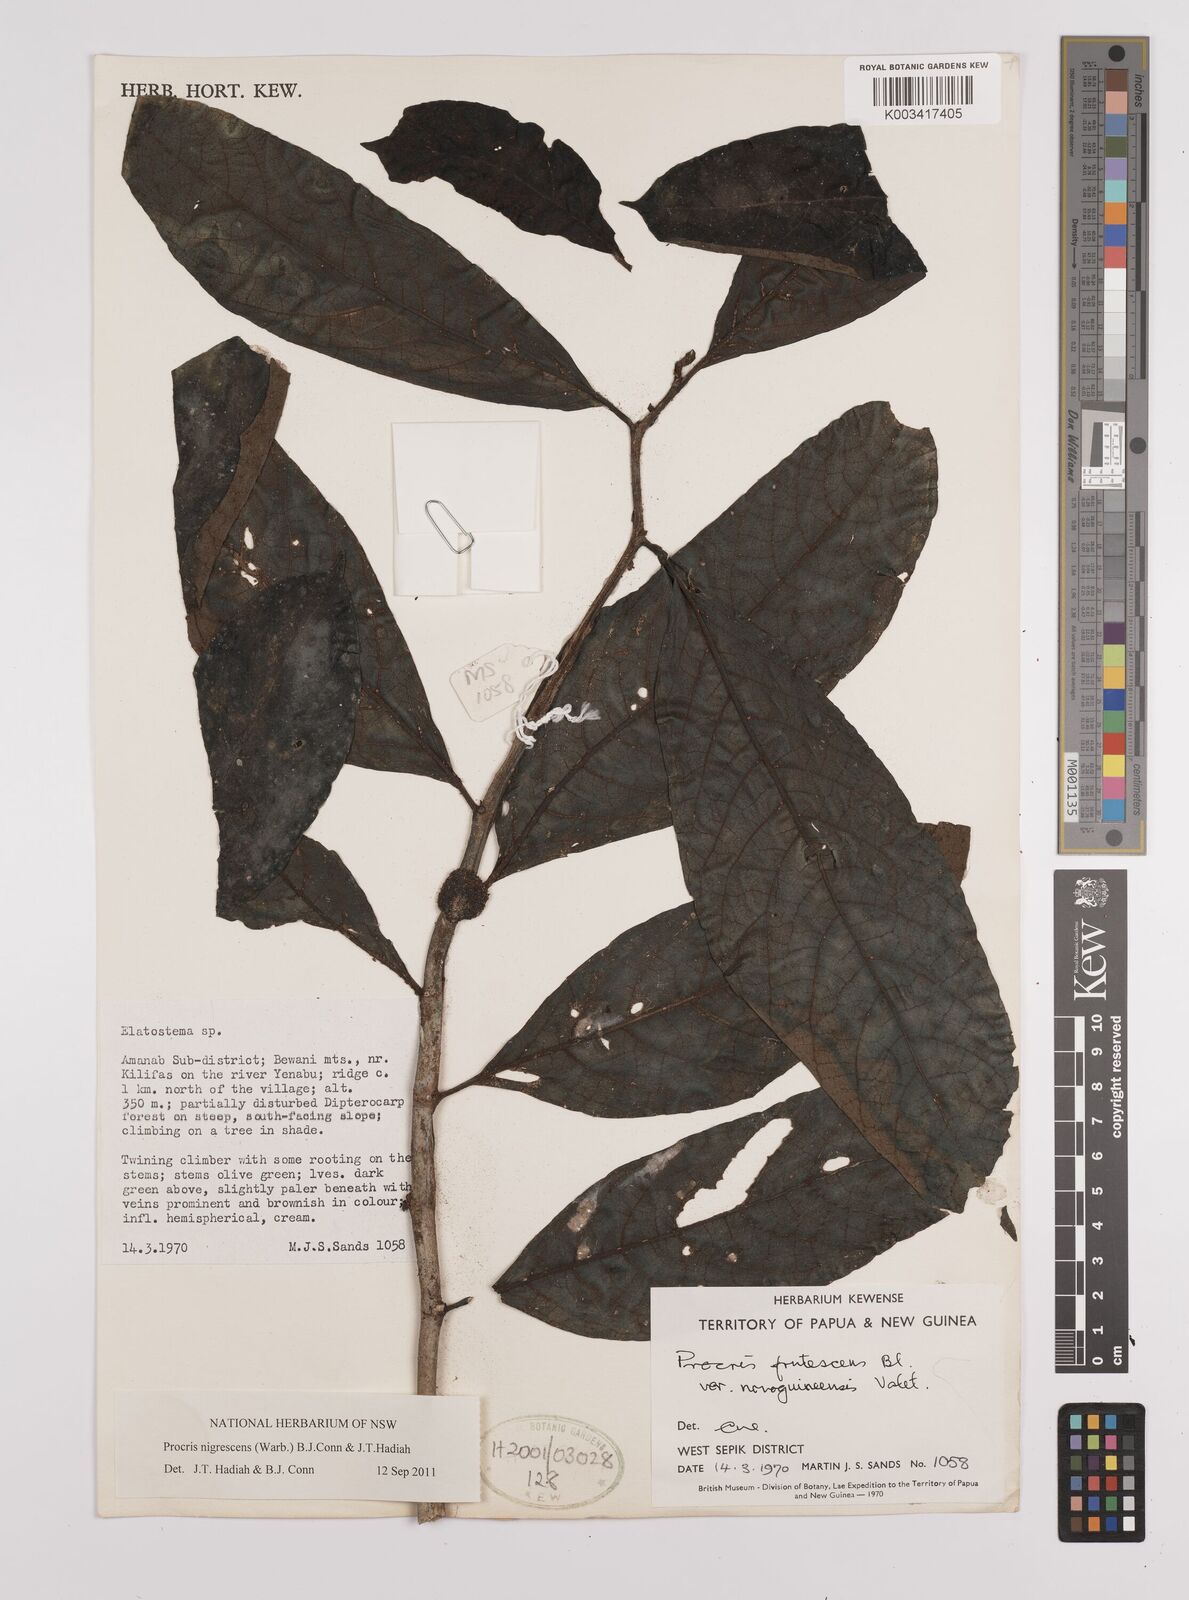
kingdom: Plantae
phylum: Tracheophyta
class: Magnoliopsida
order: Rosales
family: Urticaceae
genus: Procris
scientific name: Procris frutescens
